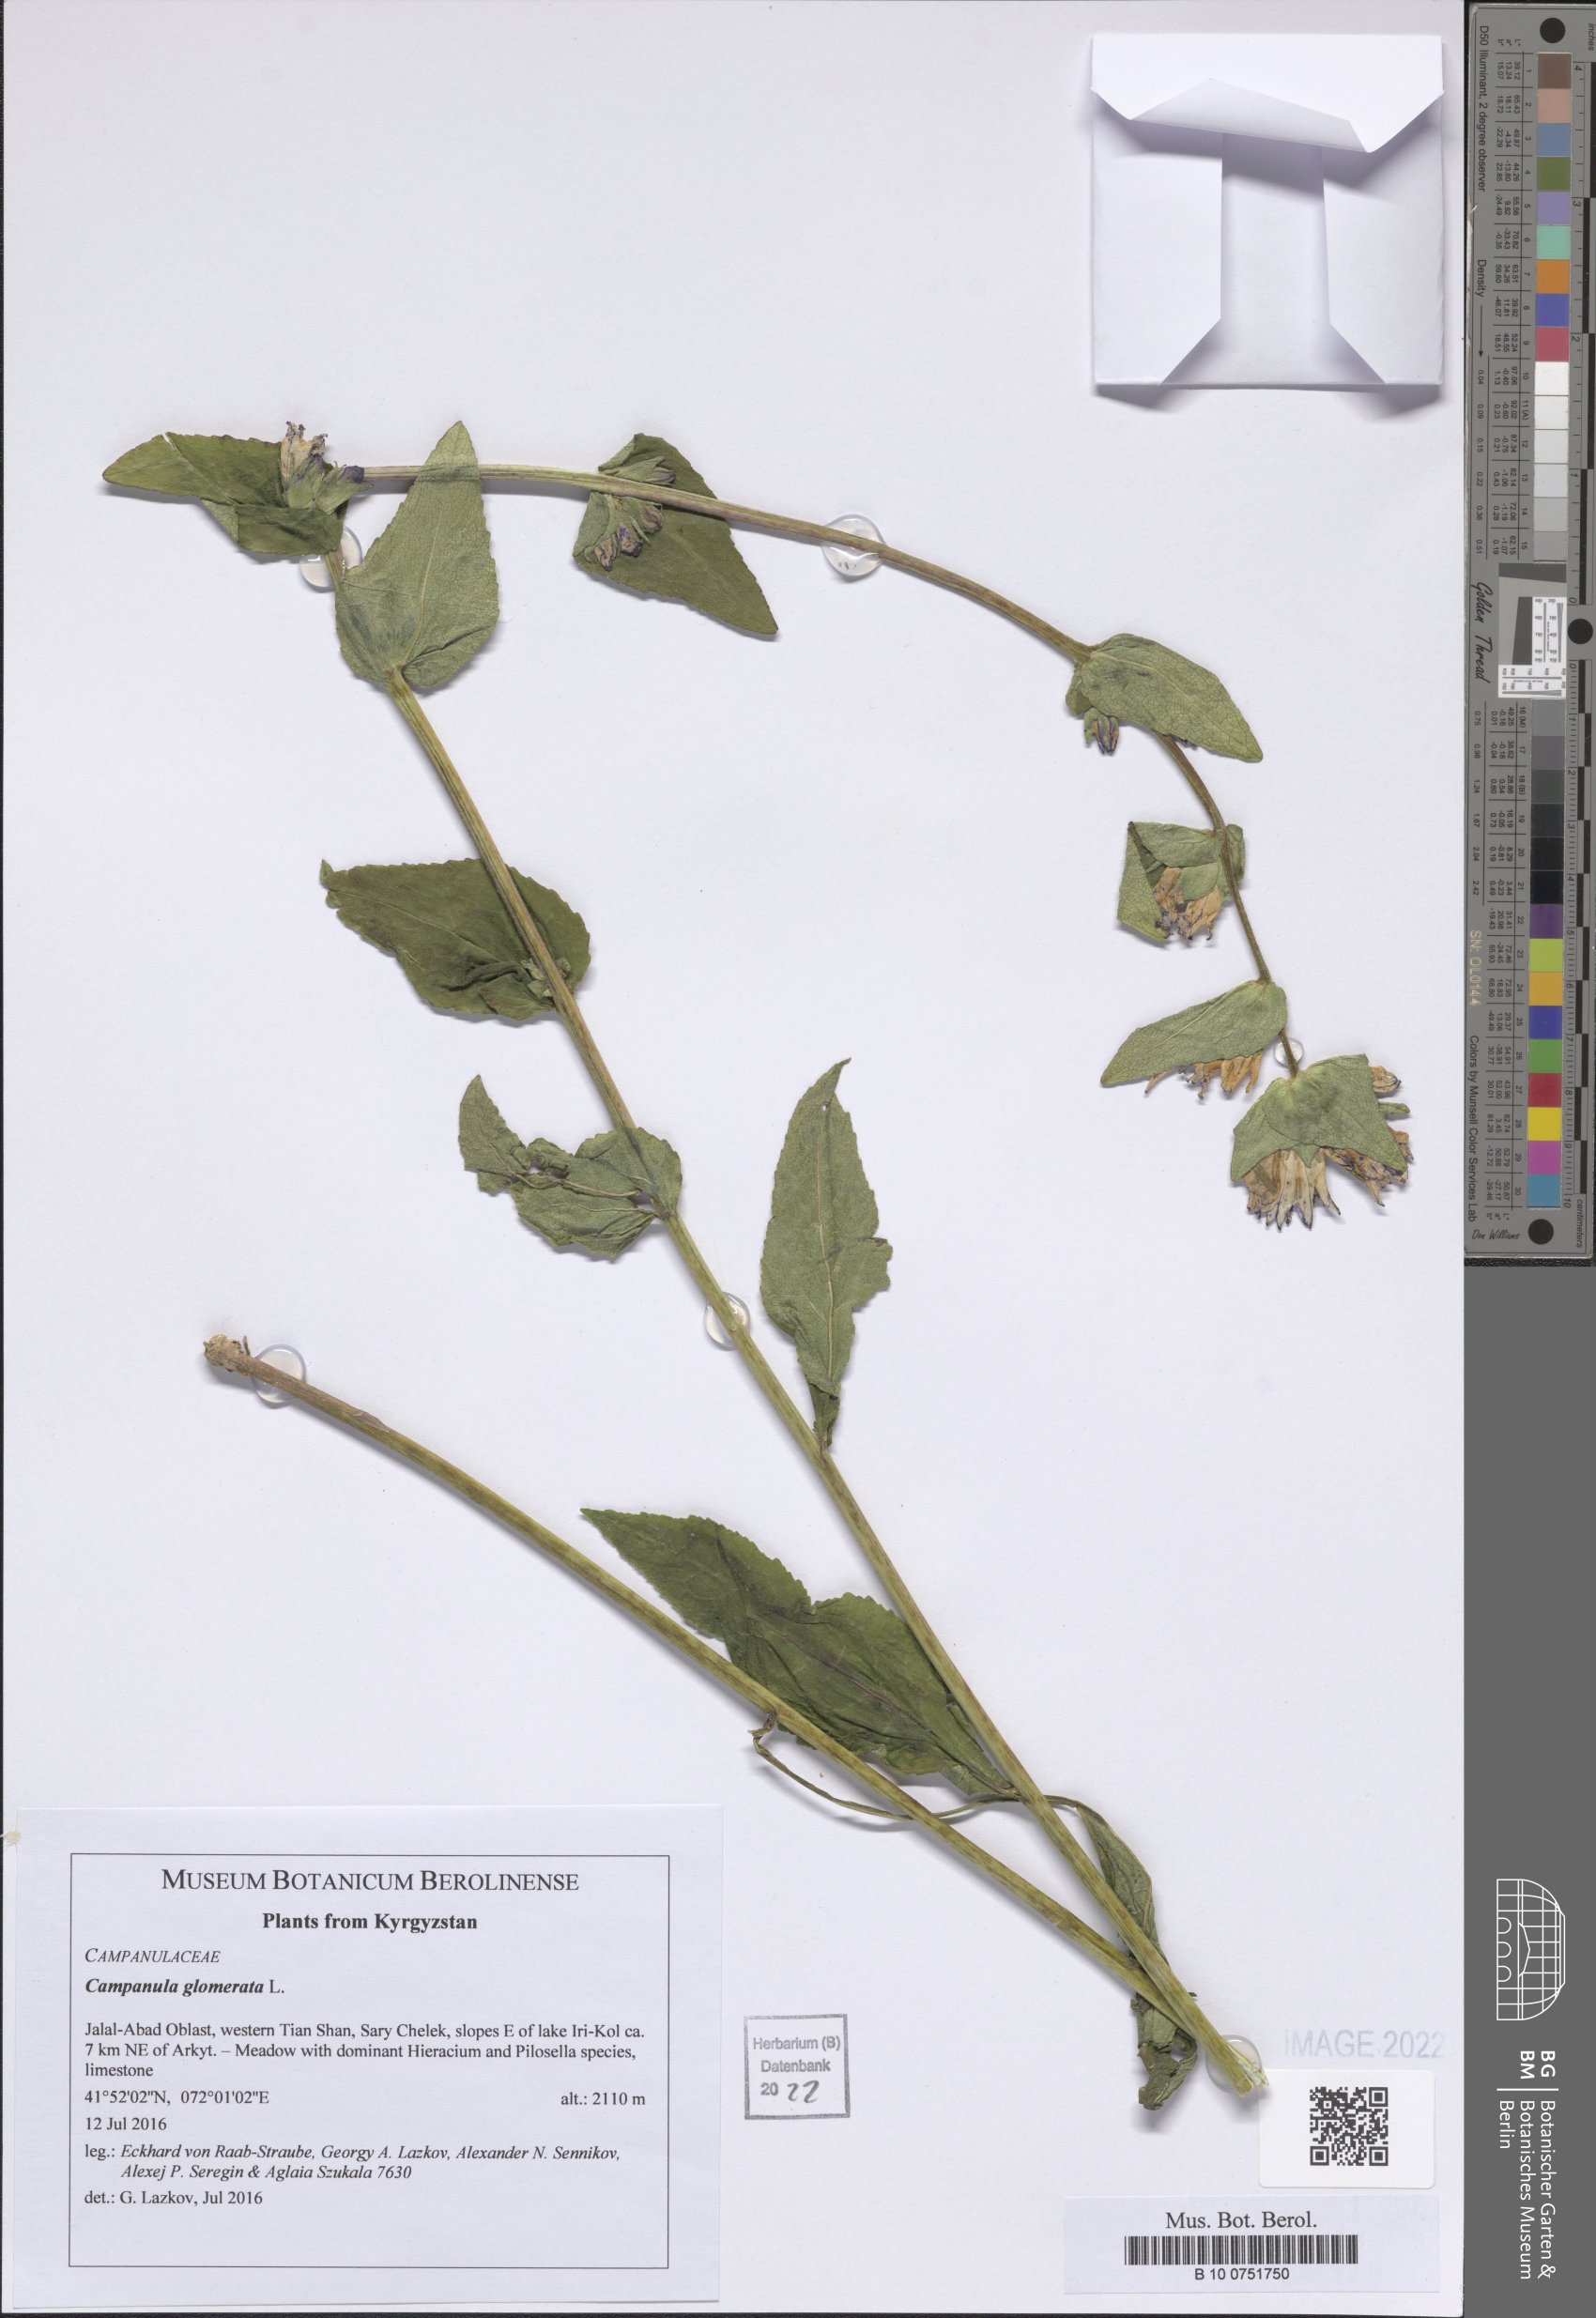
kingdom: Plantae
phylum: Tracheophyta
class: Magnoliopsida
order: Asterales
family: Campanulaceae
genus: Campanula
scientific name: Campanula glomerata
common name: Clustered bellflower
